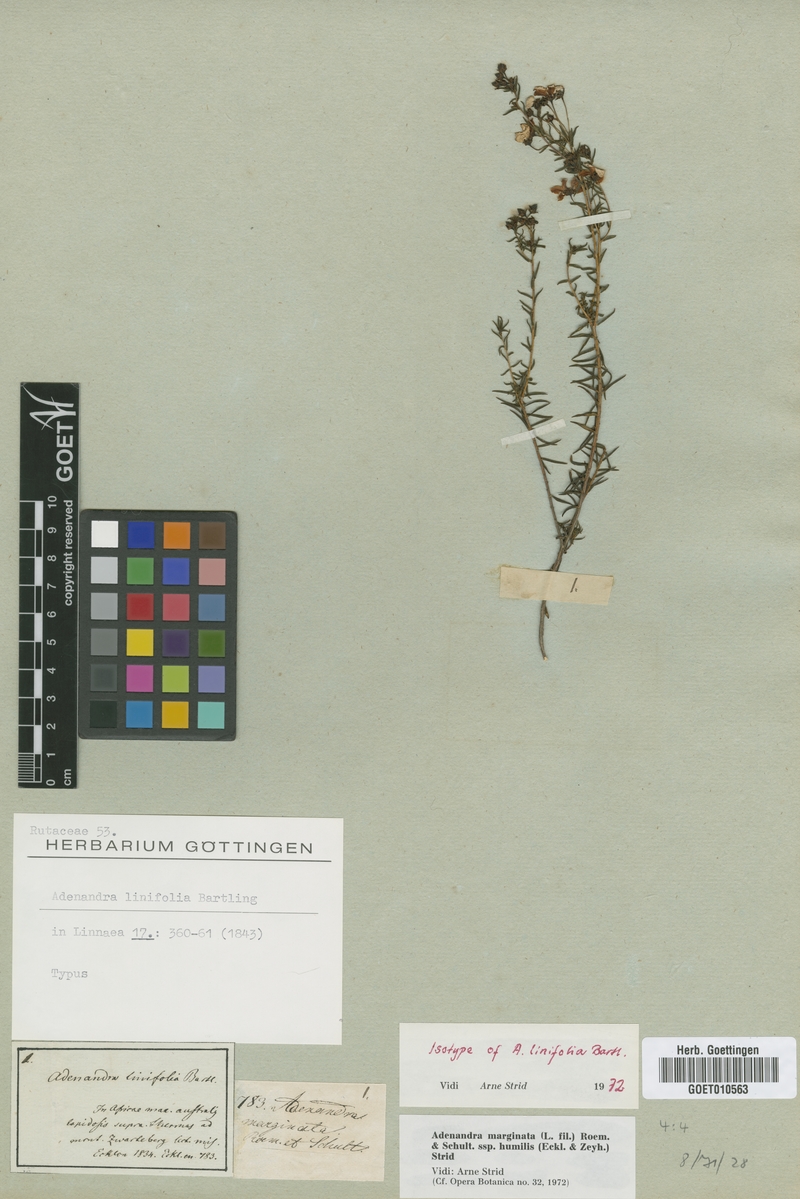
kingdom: Plantae
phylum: Tracheophyta
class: Magnoliopsida
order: Sapindales
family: Rutaceae
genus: Adenandra
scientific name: Adenandra marginata
